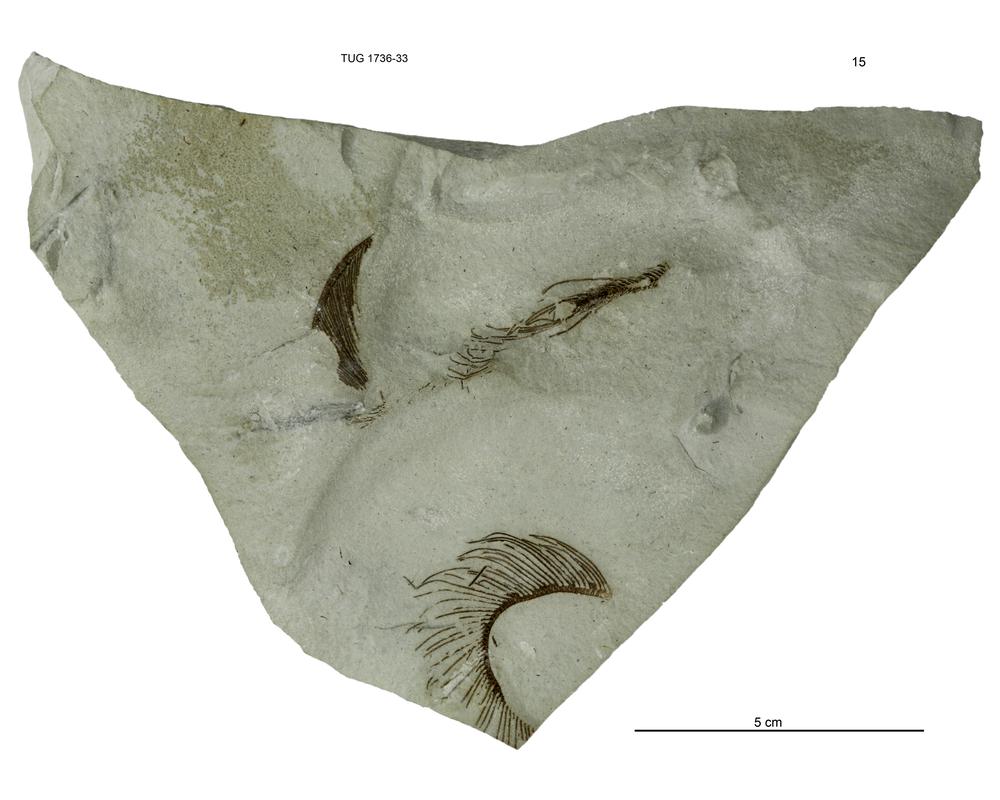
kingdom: Animalia
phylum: Echinodermata
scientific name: Echinodermata
